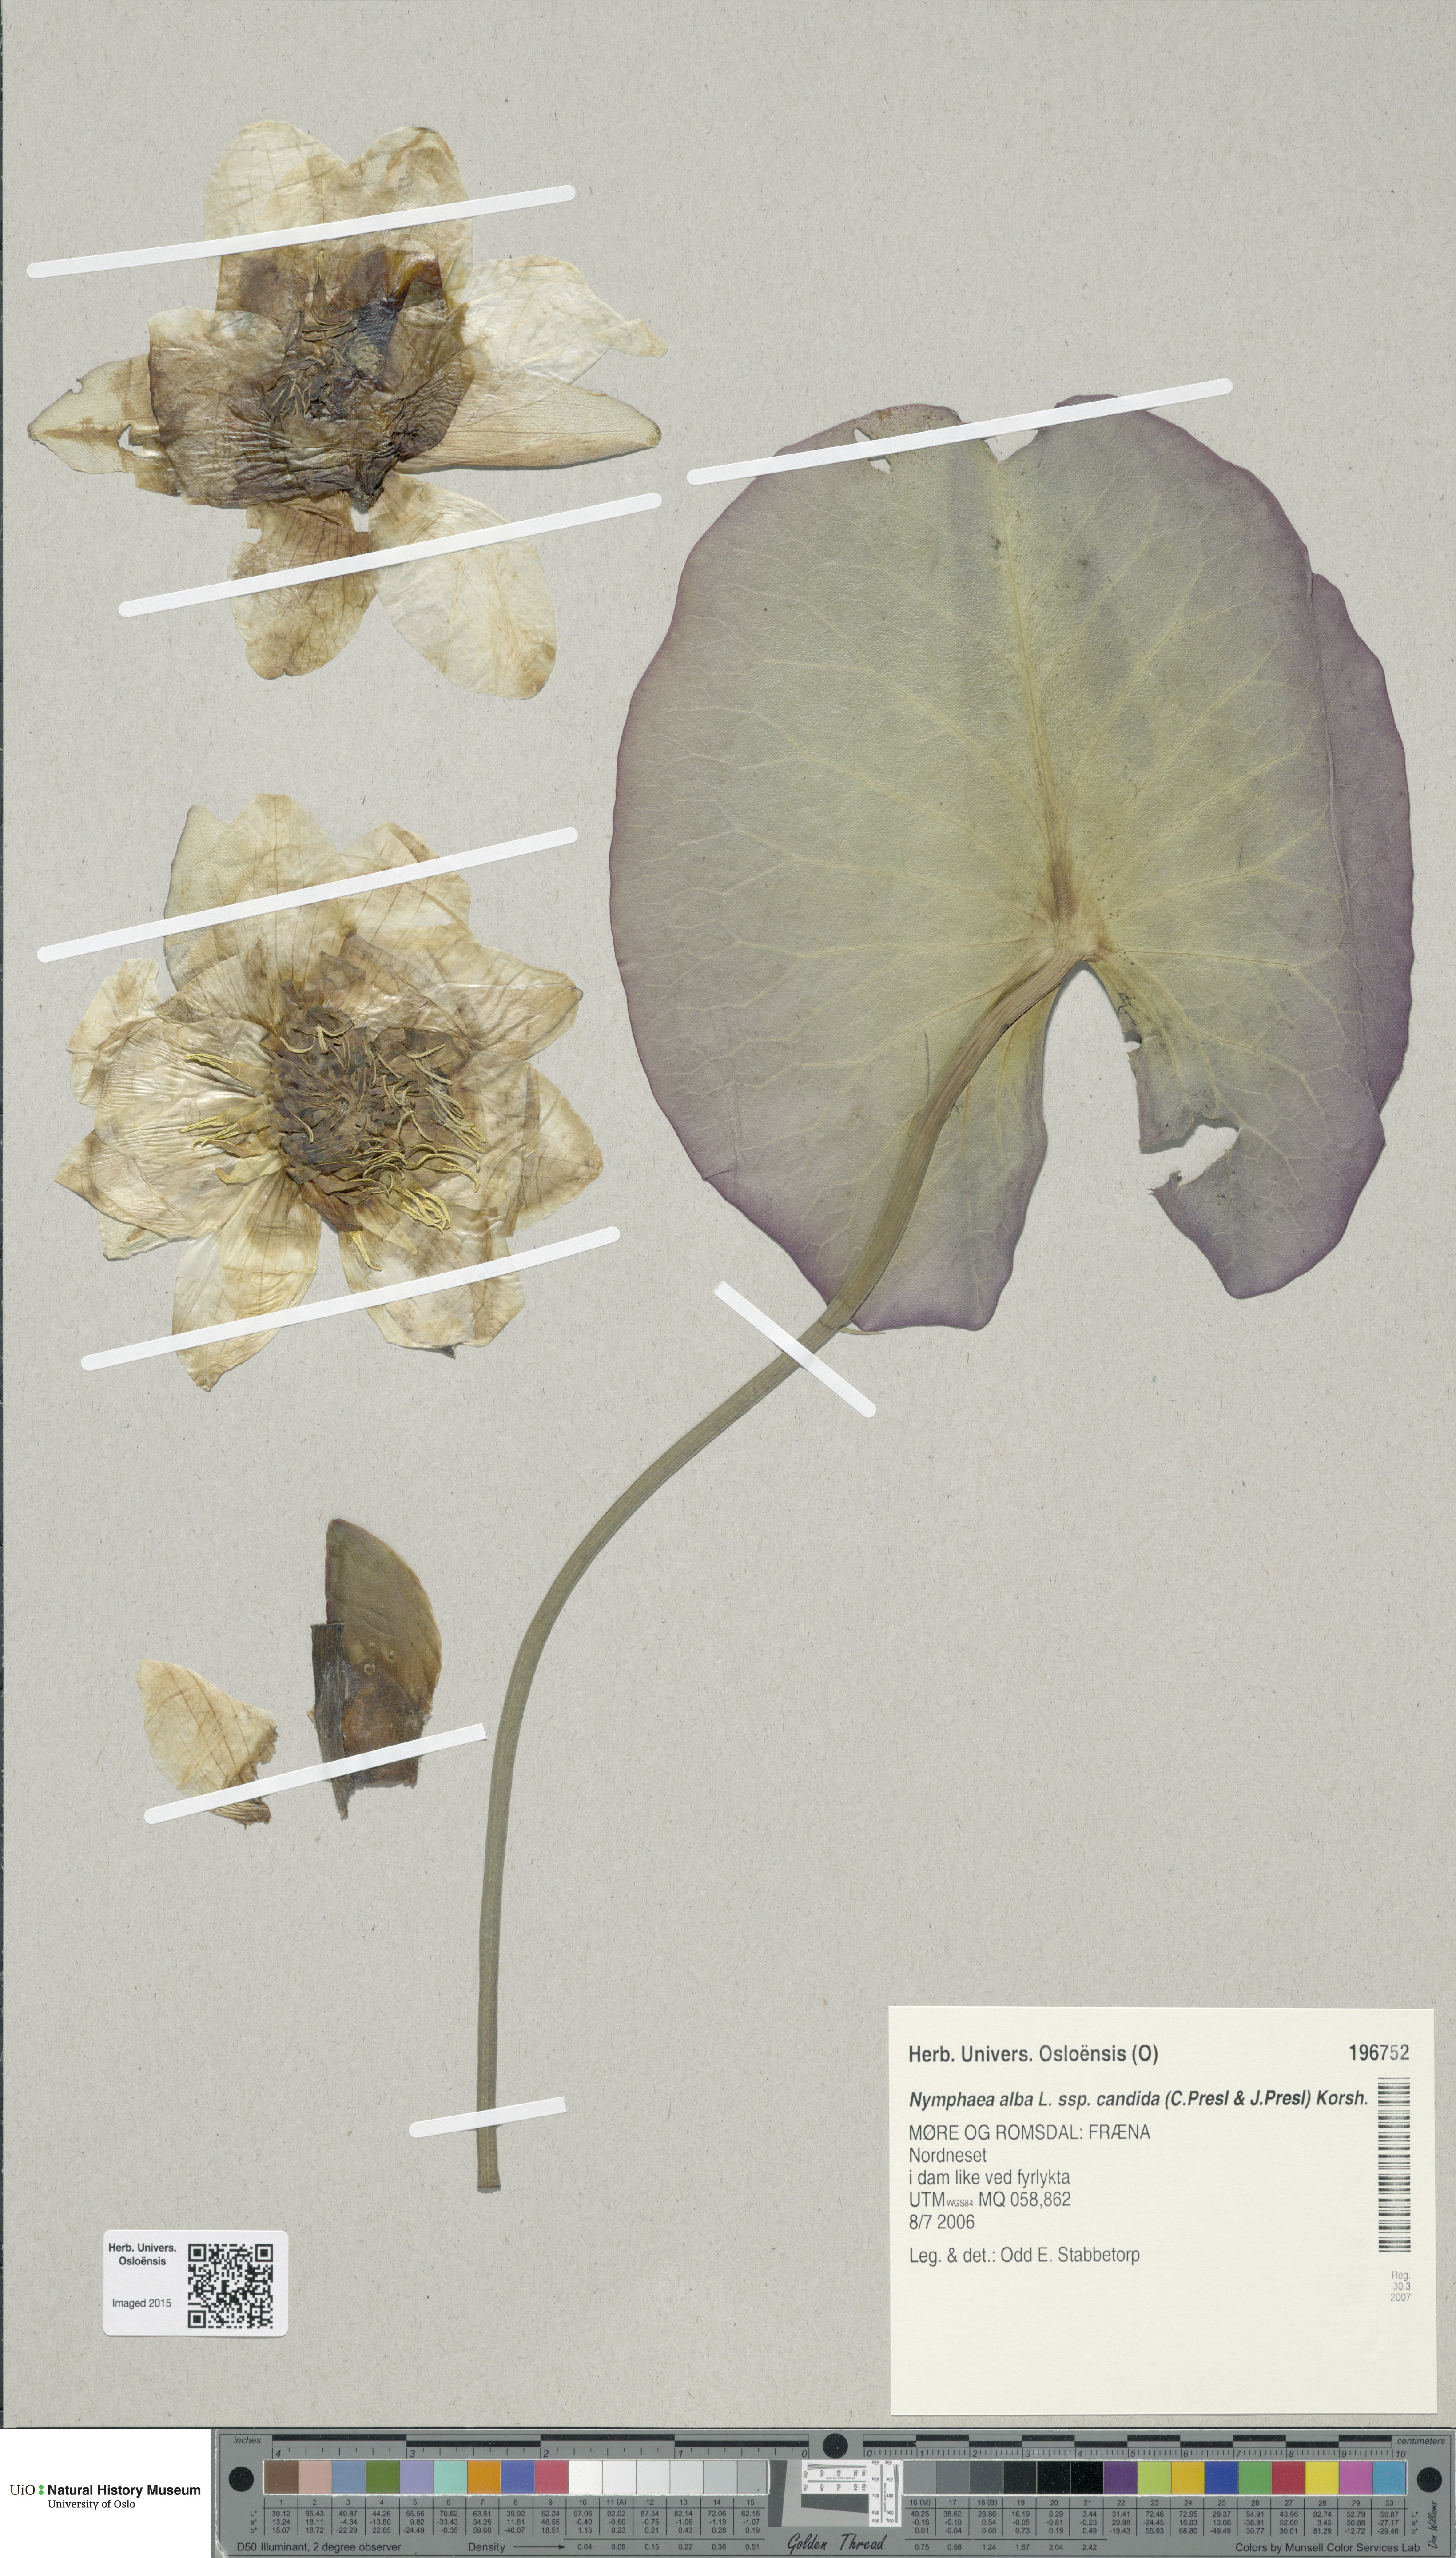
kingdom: Plantae
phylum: Tracheophyta
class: Magnoliopsida
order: Nymphaeales
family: Nymphaeaceae
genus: Nymphaea
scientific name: Nymphaea candida
